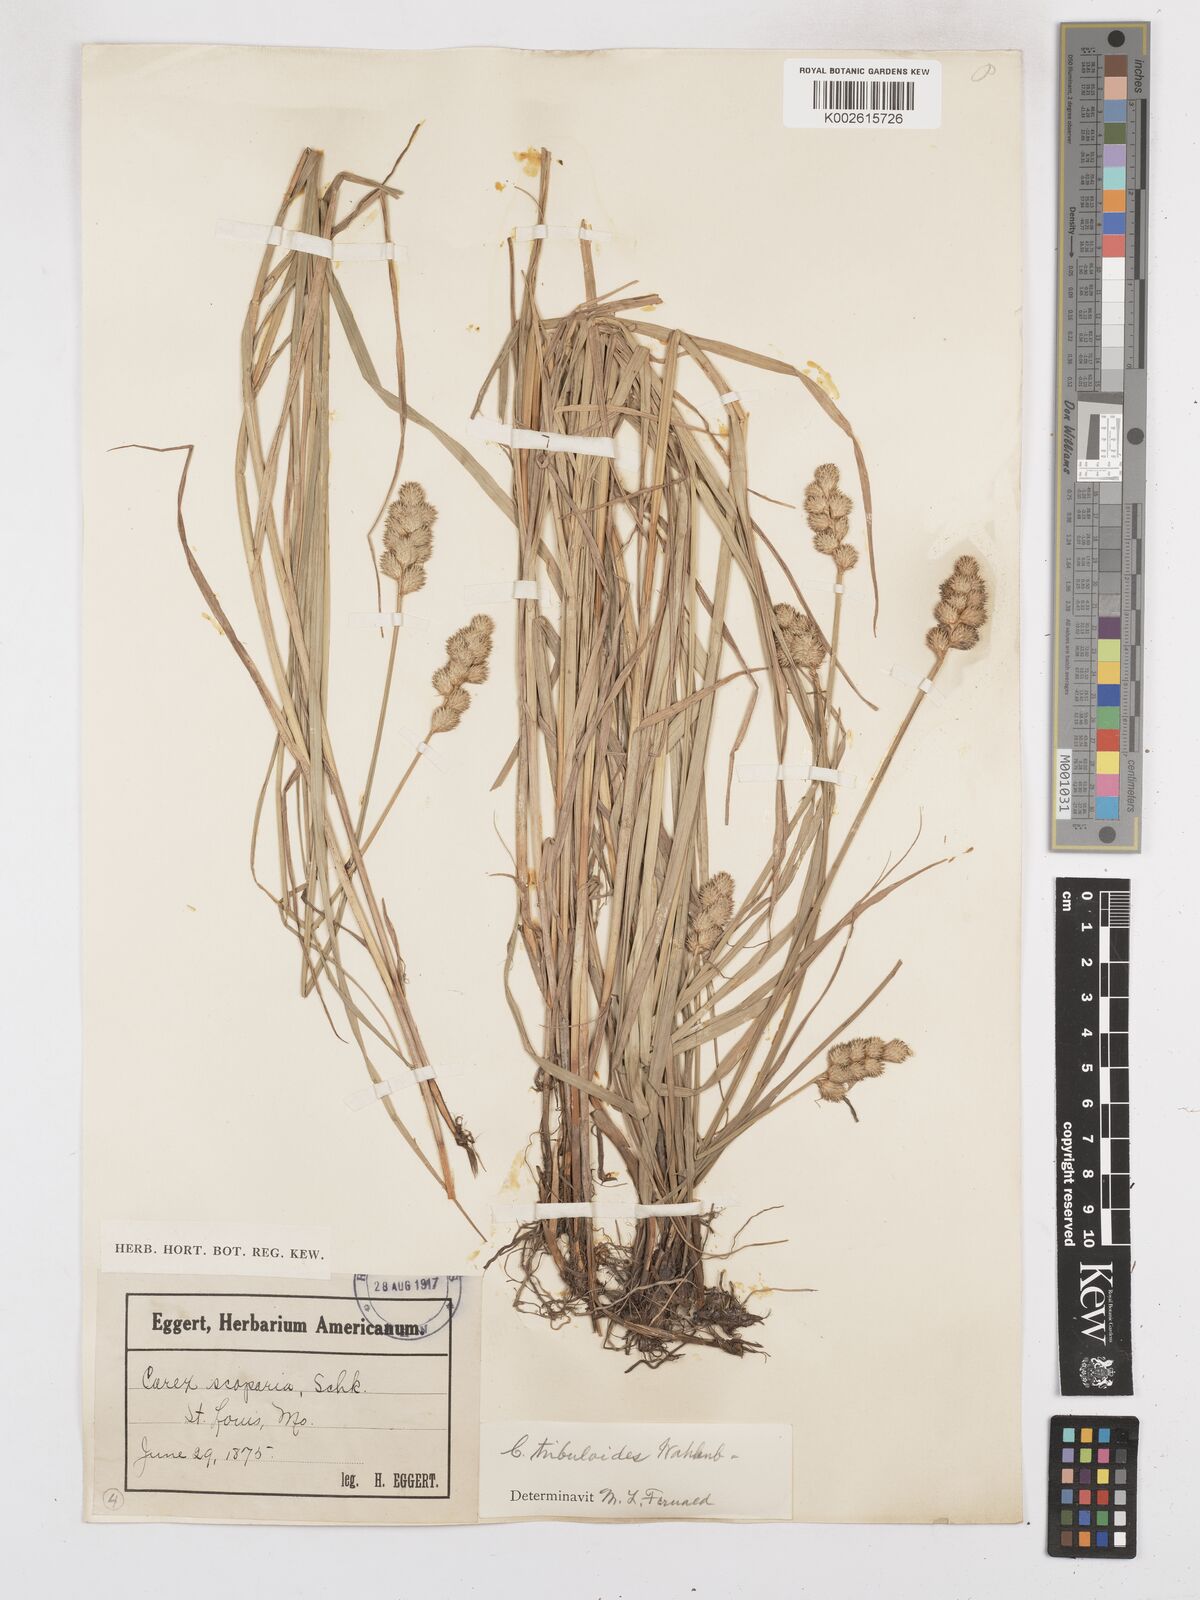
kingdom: Plantae
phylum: Tracheophyta
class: Liliopsida
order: Poales
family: Cyperaceae
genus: Carex
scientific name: Carex leporina
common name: Oval sedge
